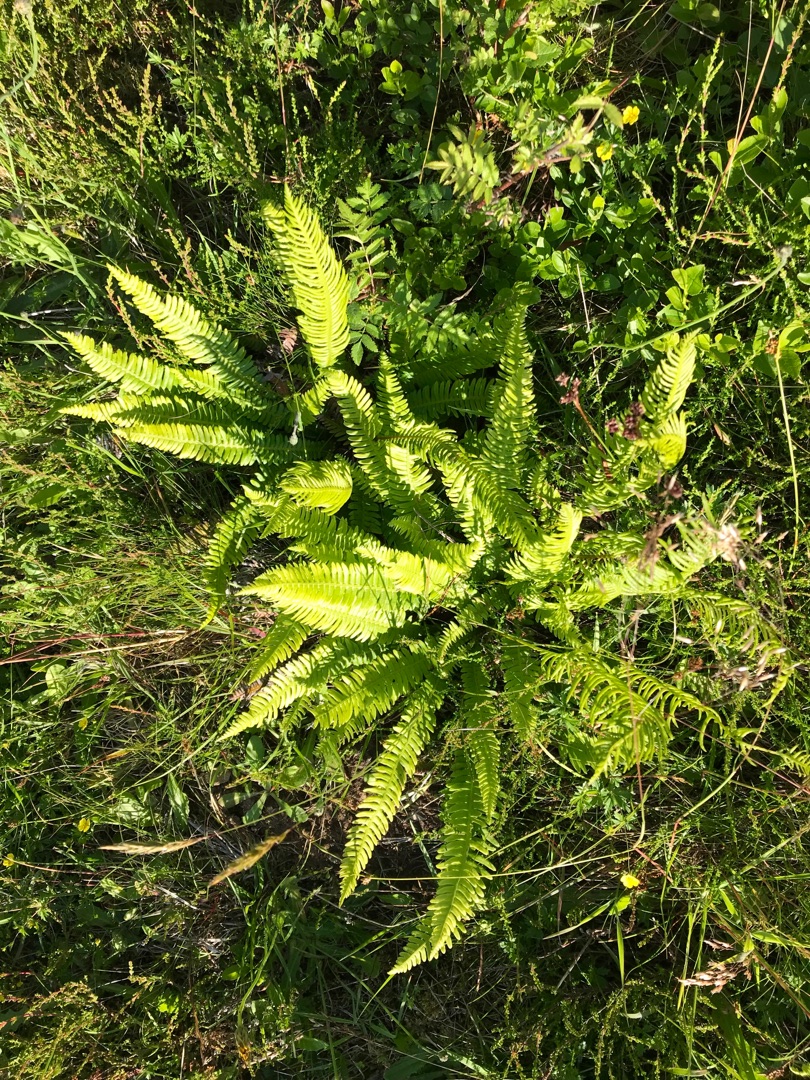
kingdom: Plantae
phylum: Tracheophyta
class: Polypodiopsida
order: Polypodiales
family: Blechnaceae
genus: Struthiopteris
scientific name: Struthiopteris spicant
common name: Kambregne
